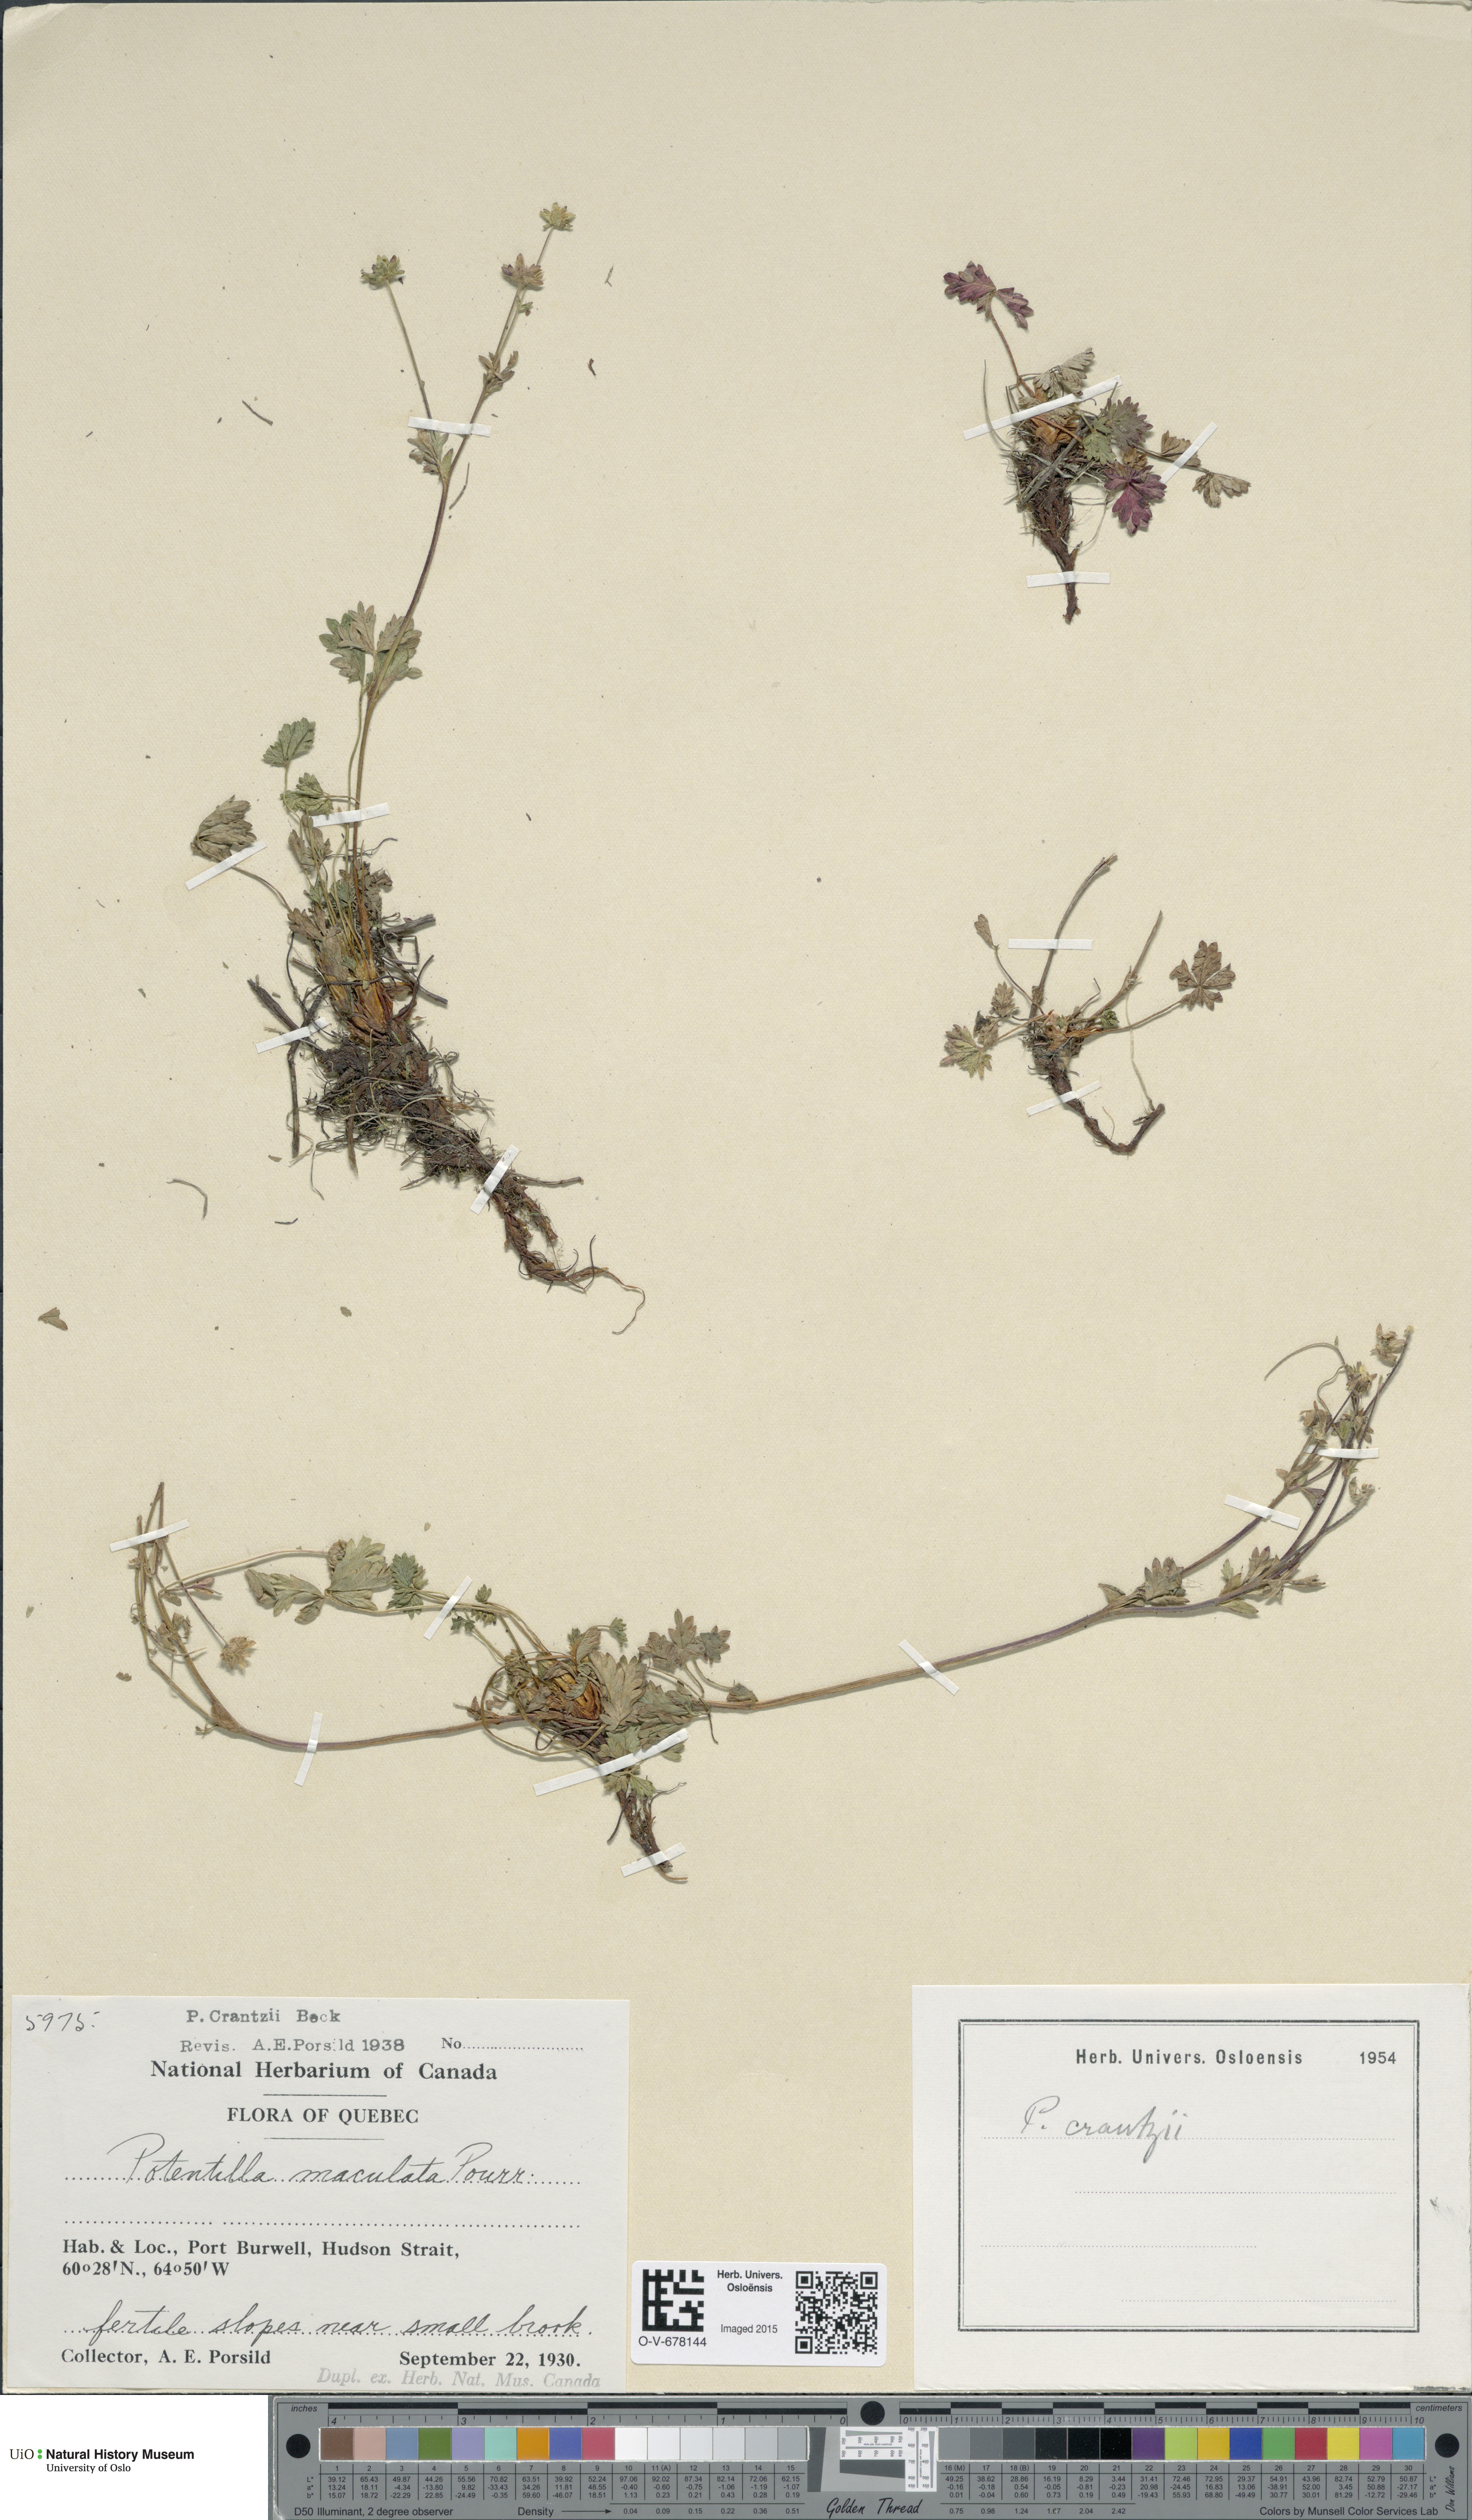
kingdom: Plantae
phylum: Tracheophyta
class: Magnoliopsida
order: Rosales
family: Rosaceae
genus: Potentilla
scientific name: Potentilla crantzii
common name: Alpine cinquefoil
